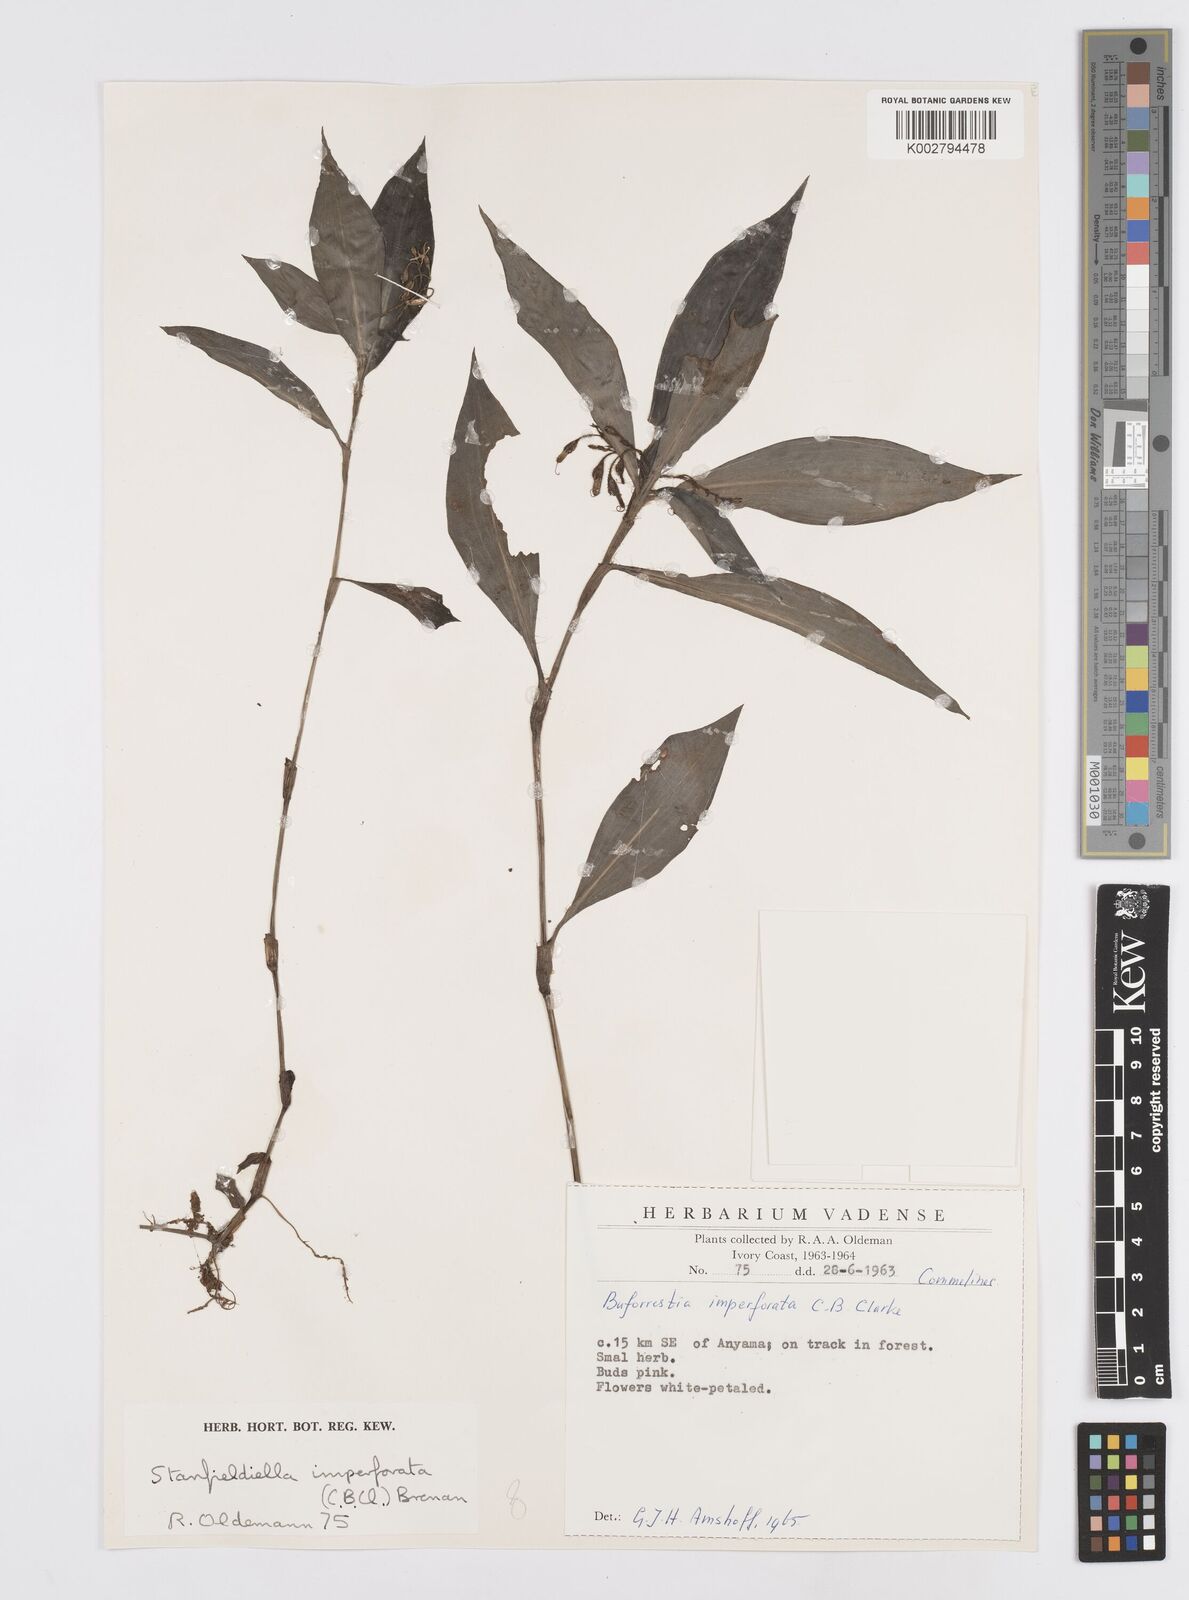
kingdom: Plantae
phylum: Tracheophyta
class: Liliopsida
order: Commelinales
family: Commelinaceae
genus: Stanfieldiella
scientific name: Stanfieldiella imperforata
